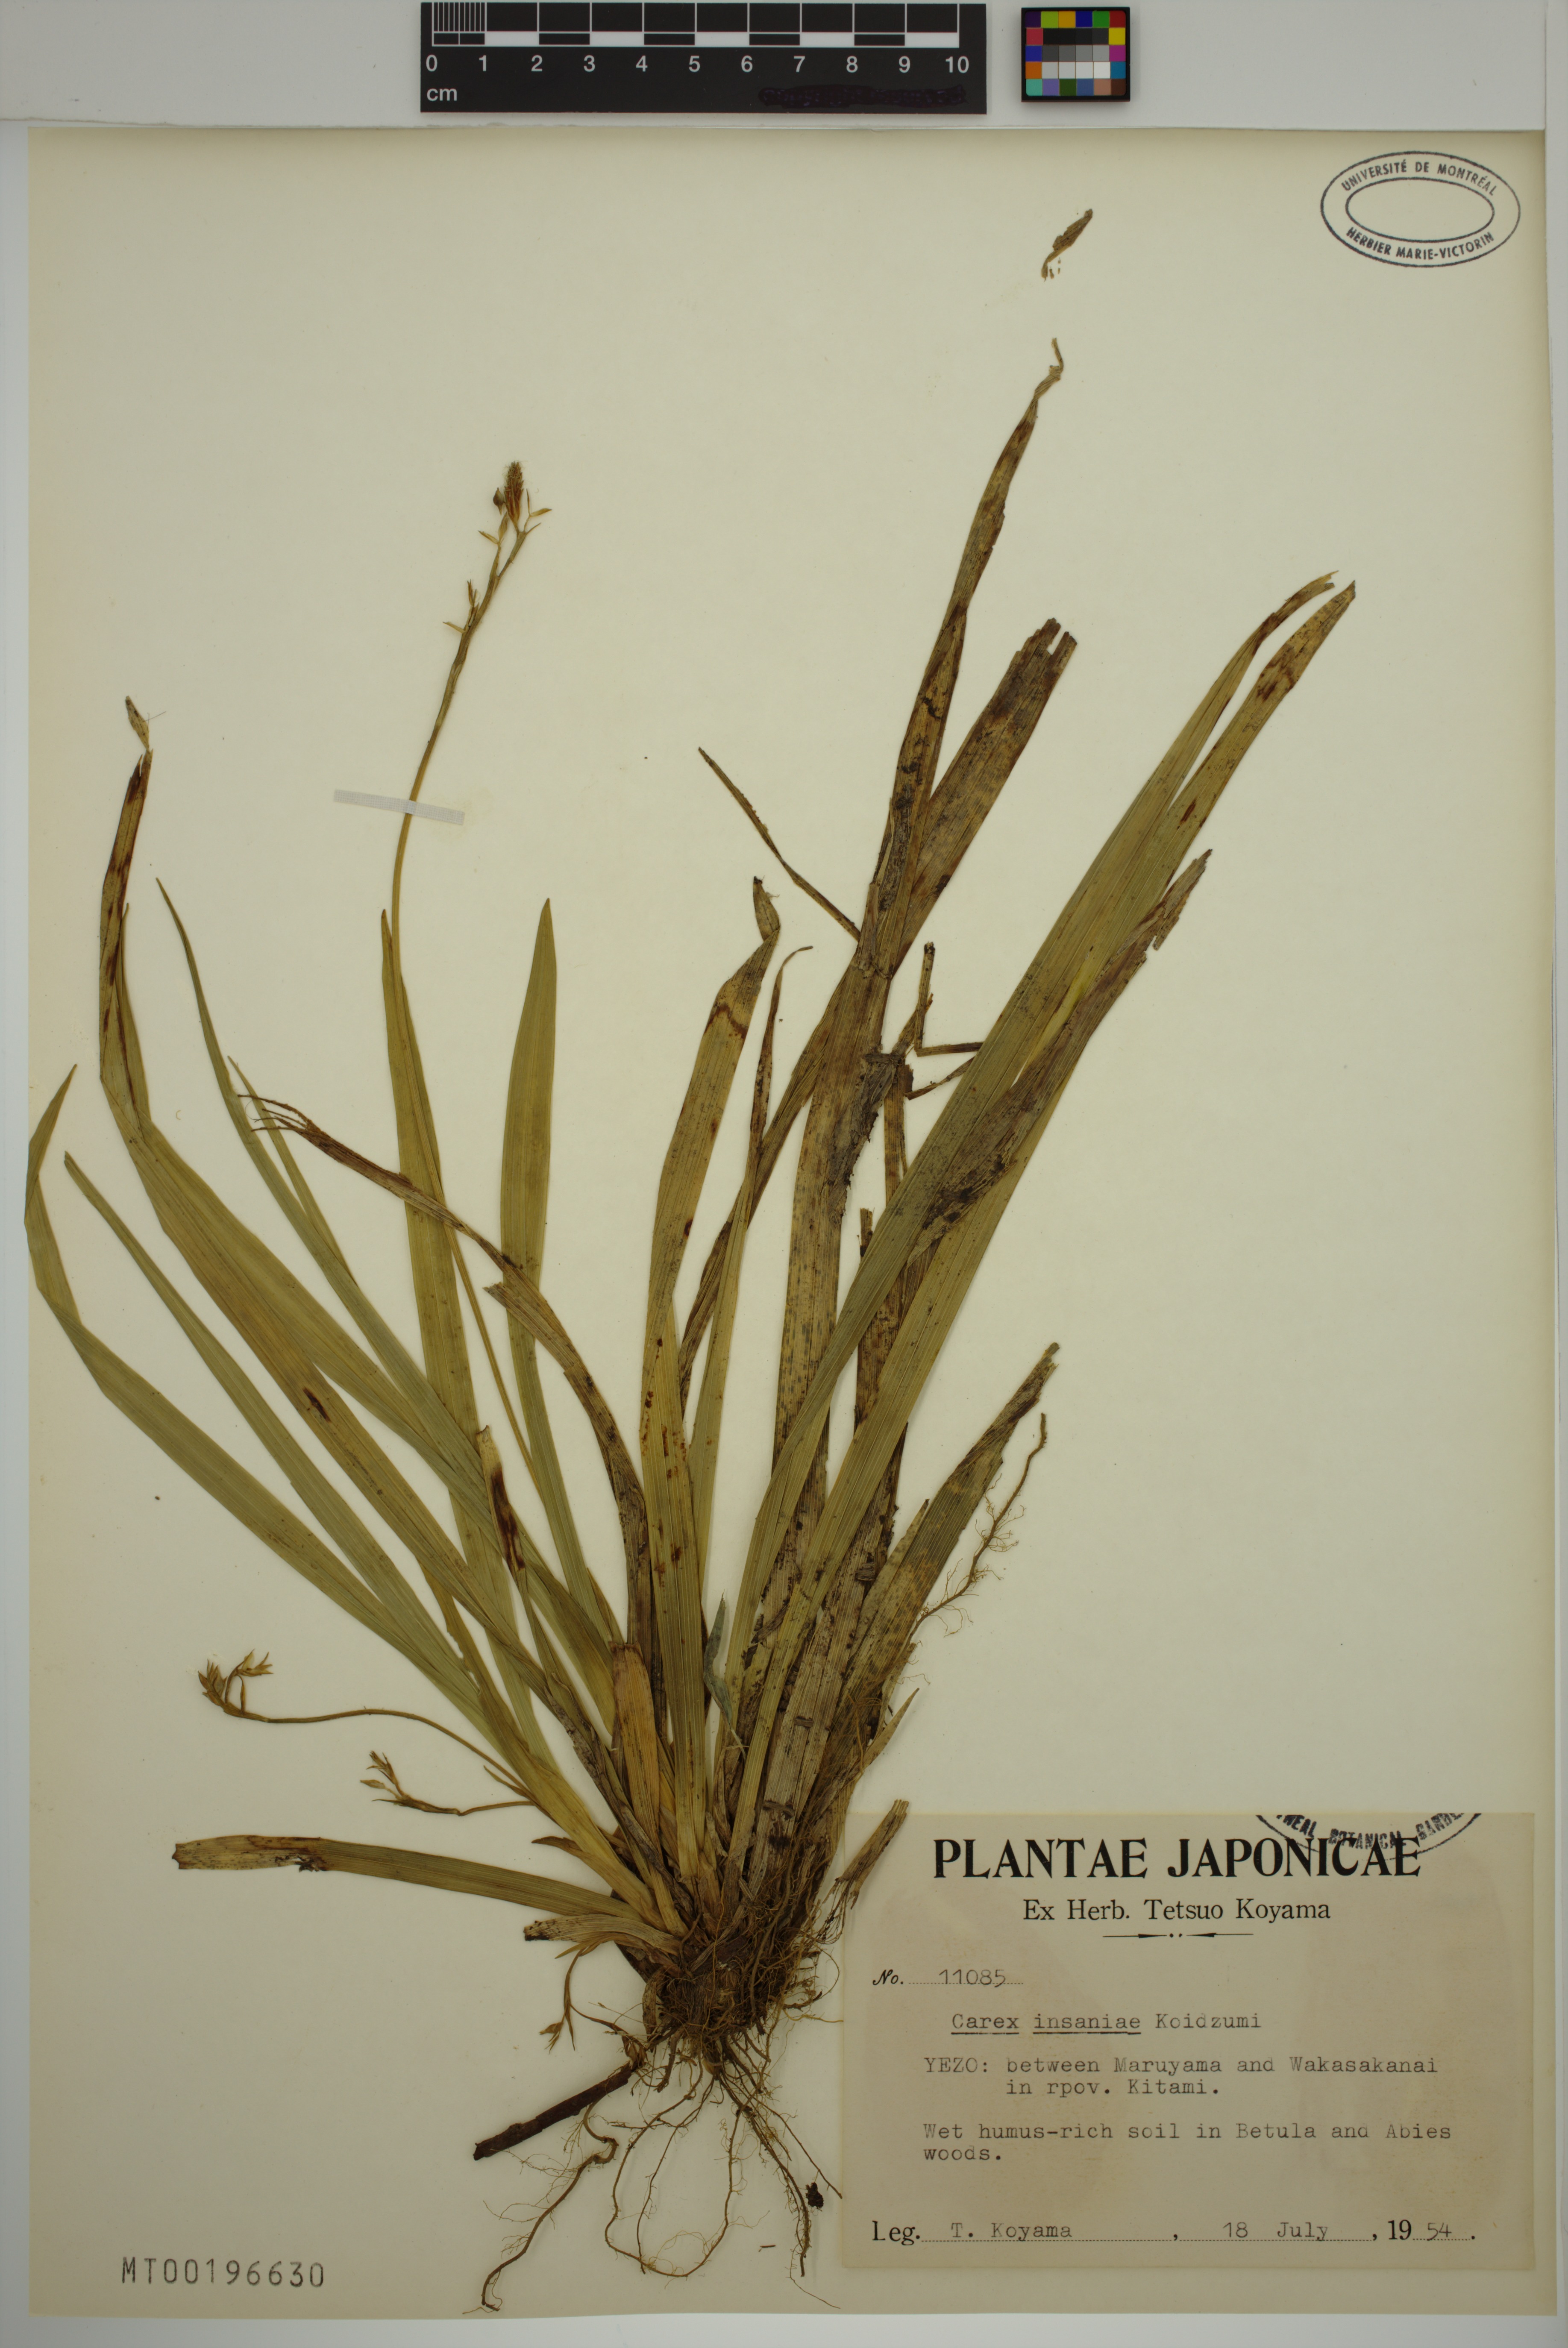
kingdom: Plantae
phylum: Tracheophyta
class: Liliopsida
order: Poales
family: Cyperaceae
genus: Carex
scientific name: Carex insaniae
